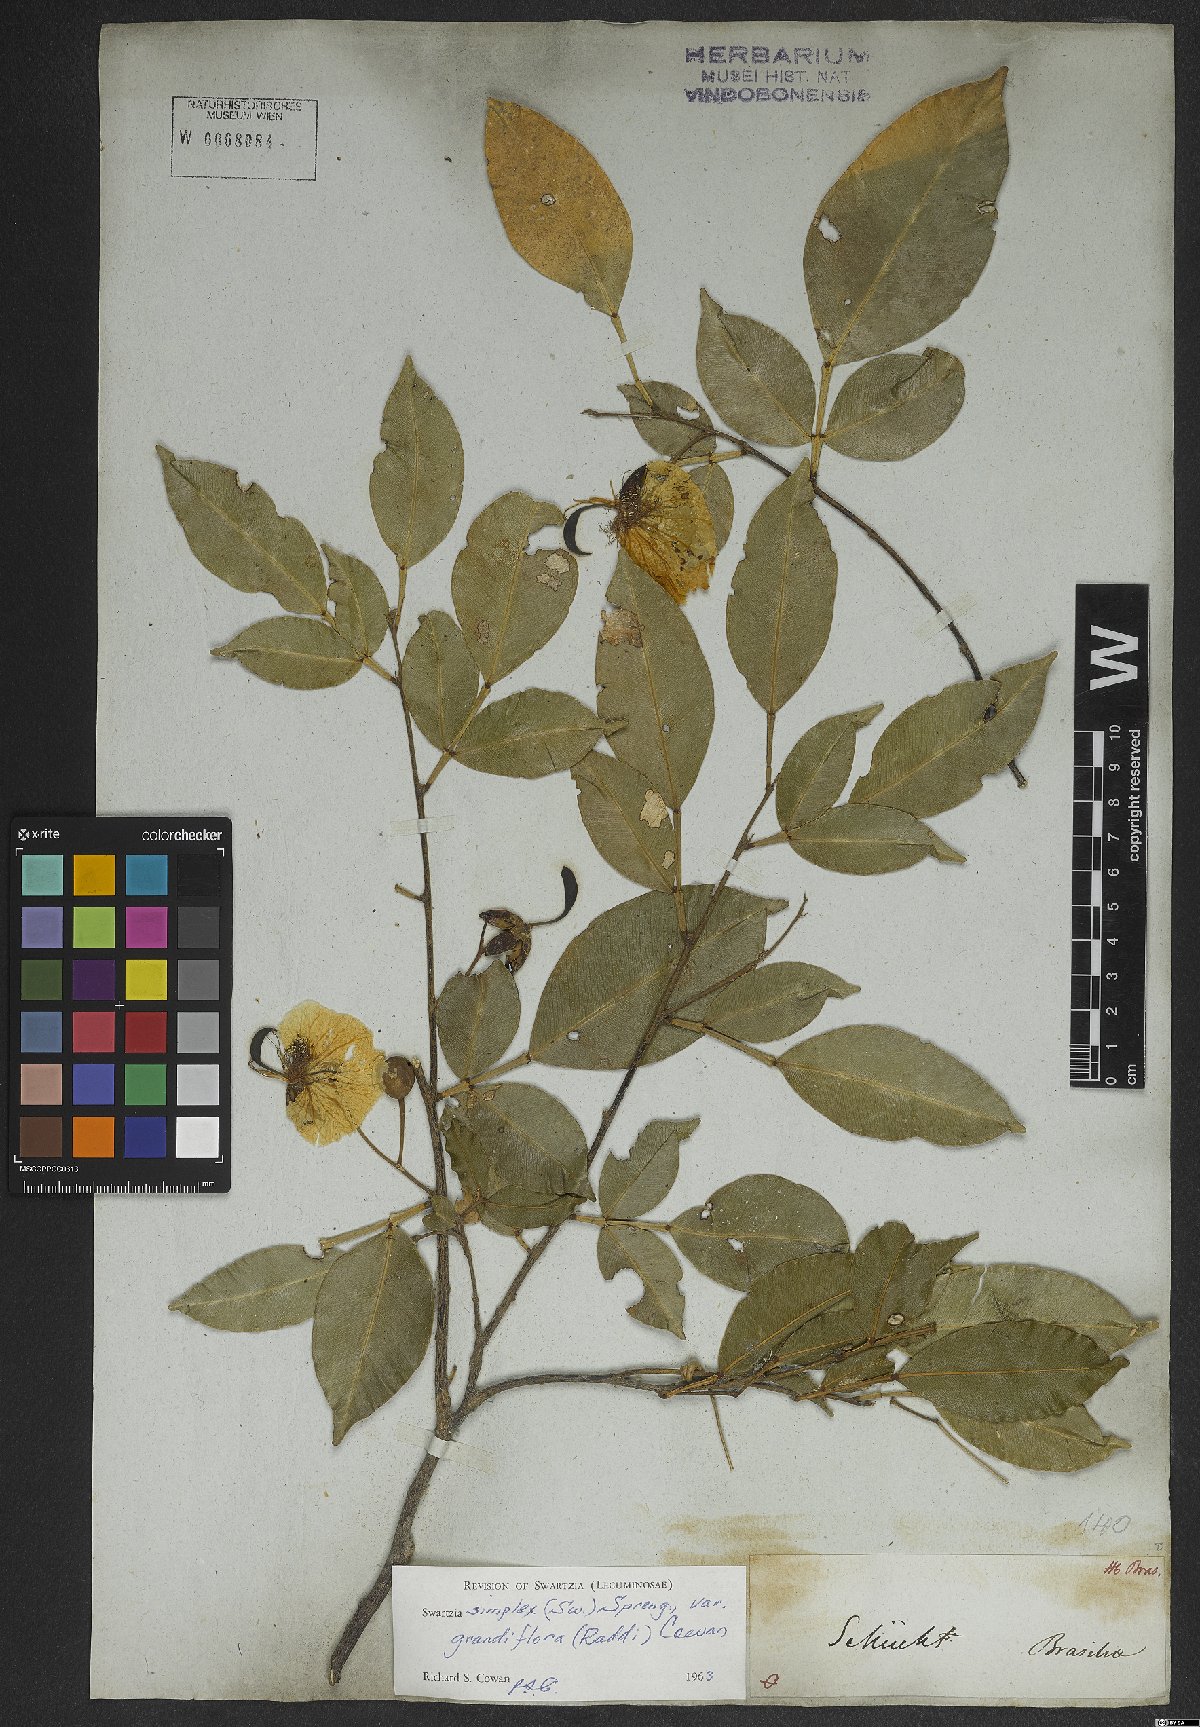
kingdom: Plantae
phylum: Tracheophyta
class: Magnoliopsida
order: Fabales
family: Fabaceae
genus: Swartzia
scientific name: Swartzia simplex
